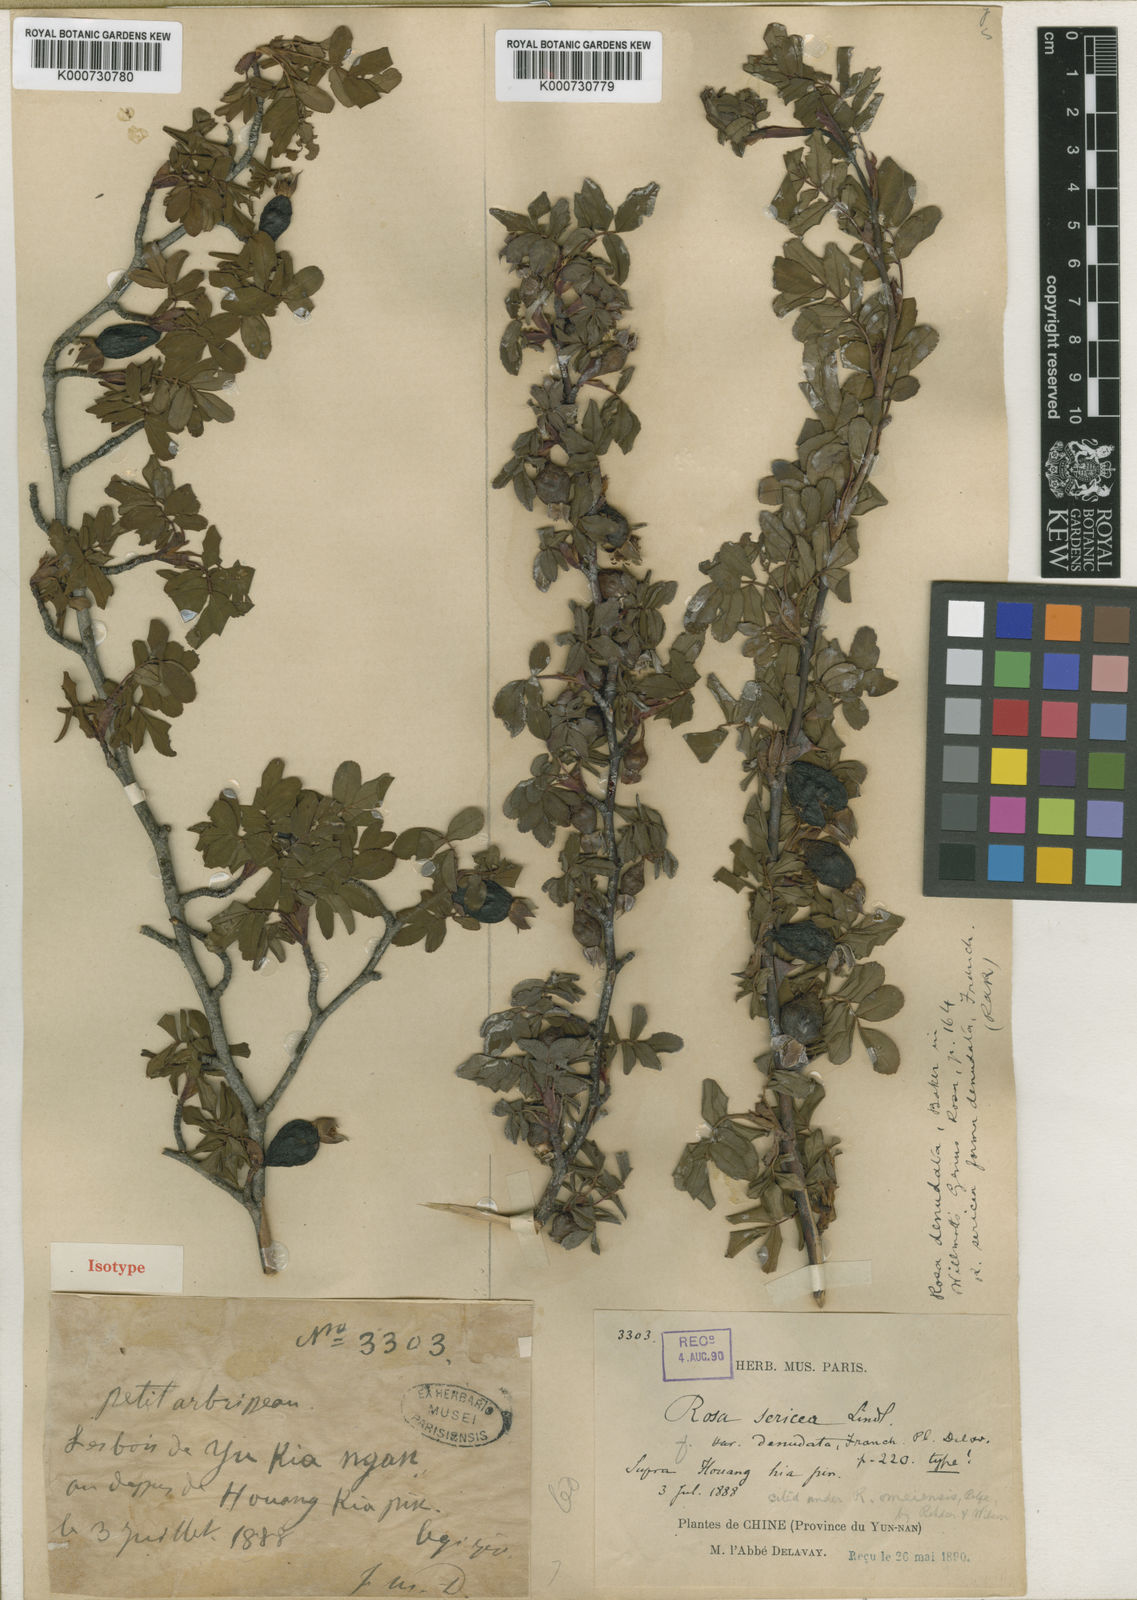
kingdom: Plantae
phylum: Tracheophyta
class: Magnoliopsida
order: Rosales
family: Rosaceae
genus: Rosa
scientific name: Rosa sericea
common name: Silky rose
